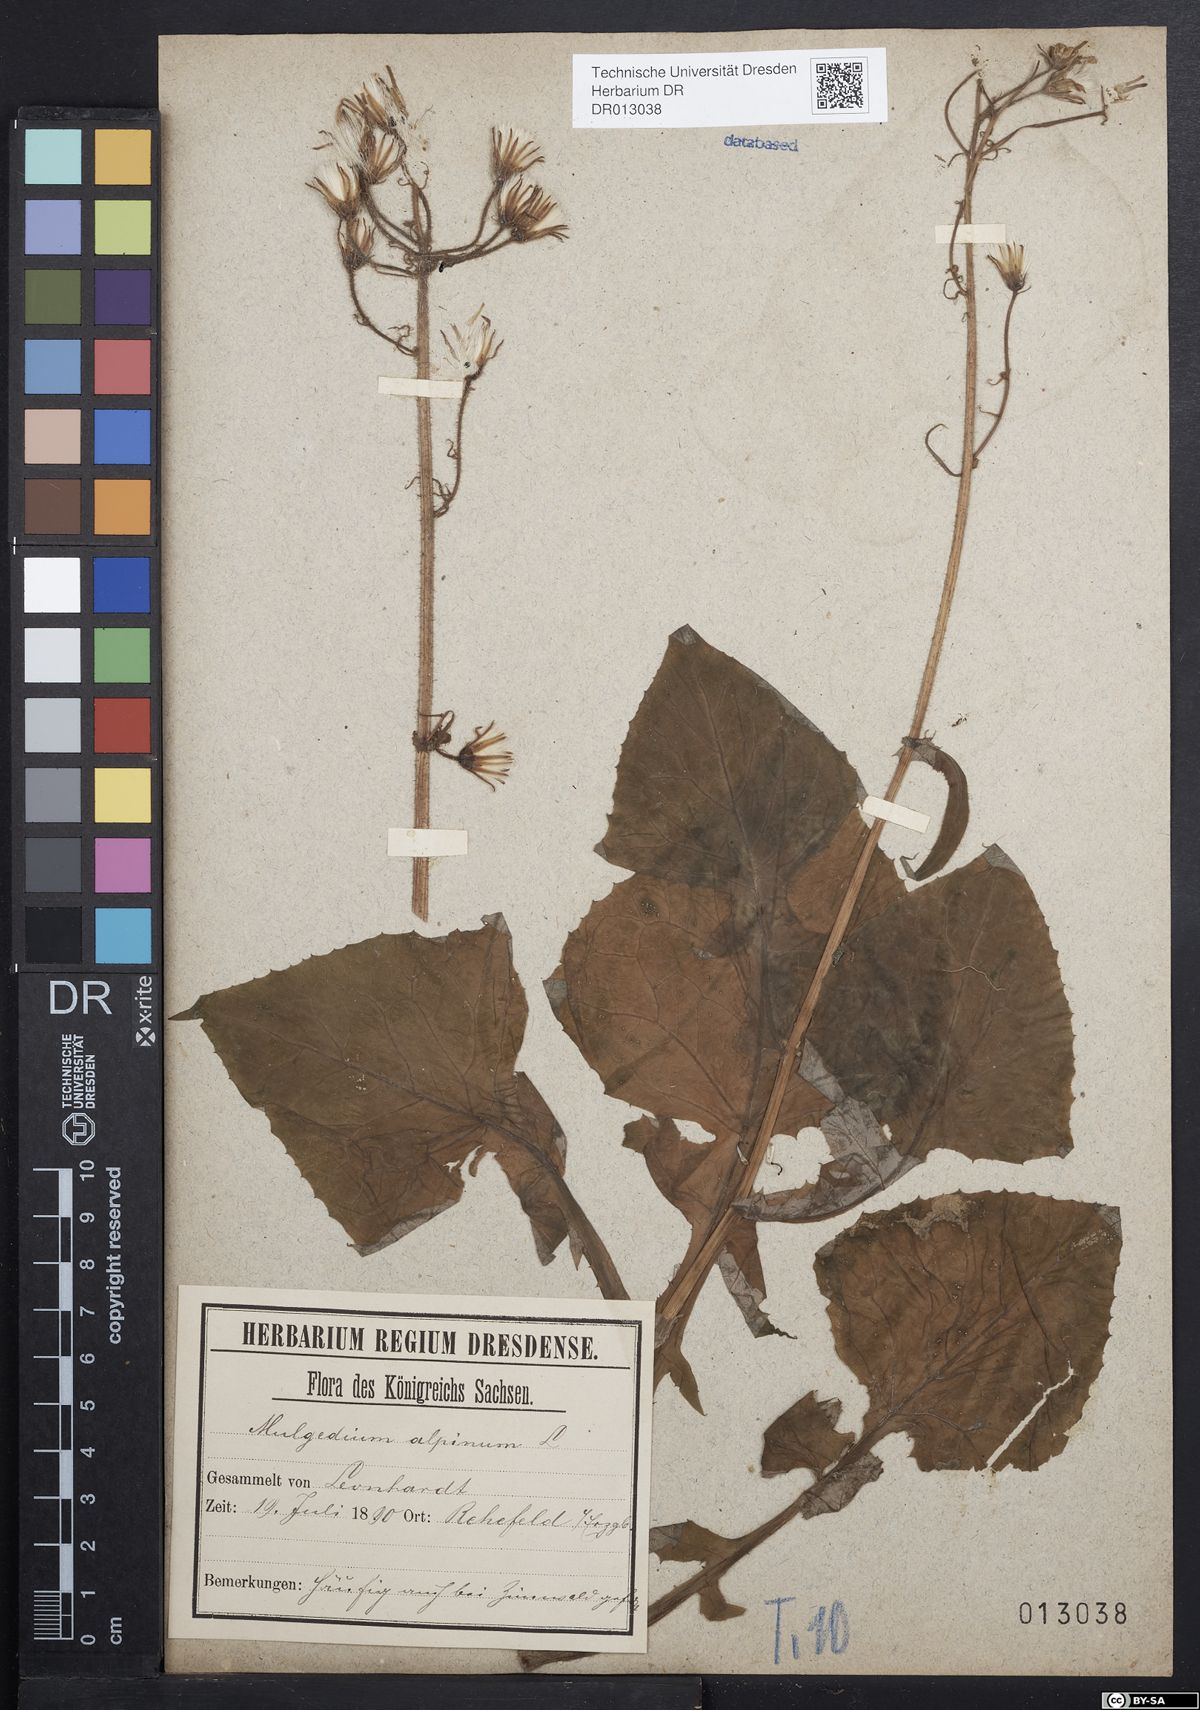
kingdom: Plantae
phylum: Tracheophyta
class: Magnoliopsida
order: Asterales
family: Asteraceae
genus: Cicerbita
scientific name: Cicerbita alpina
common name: Alpine blue-sow-thistle
